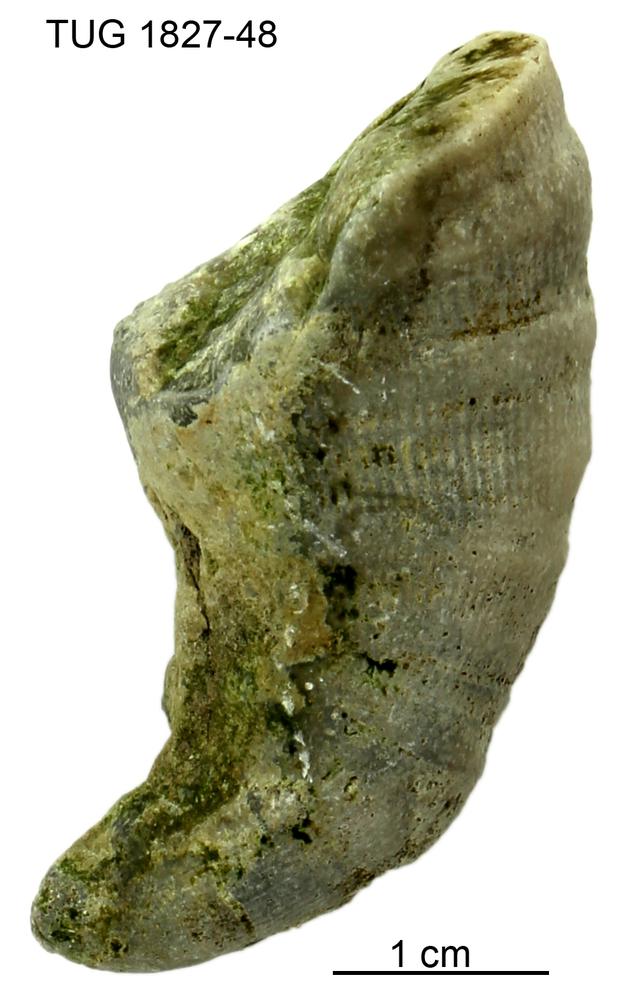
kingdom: Animalia
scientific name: Animalia
